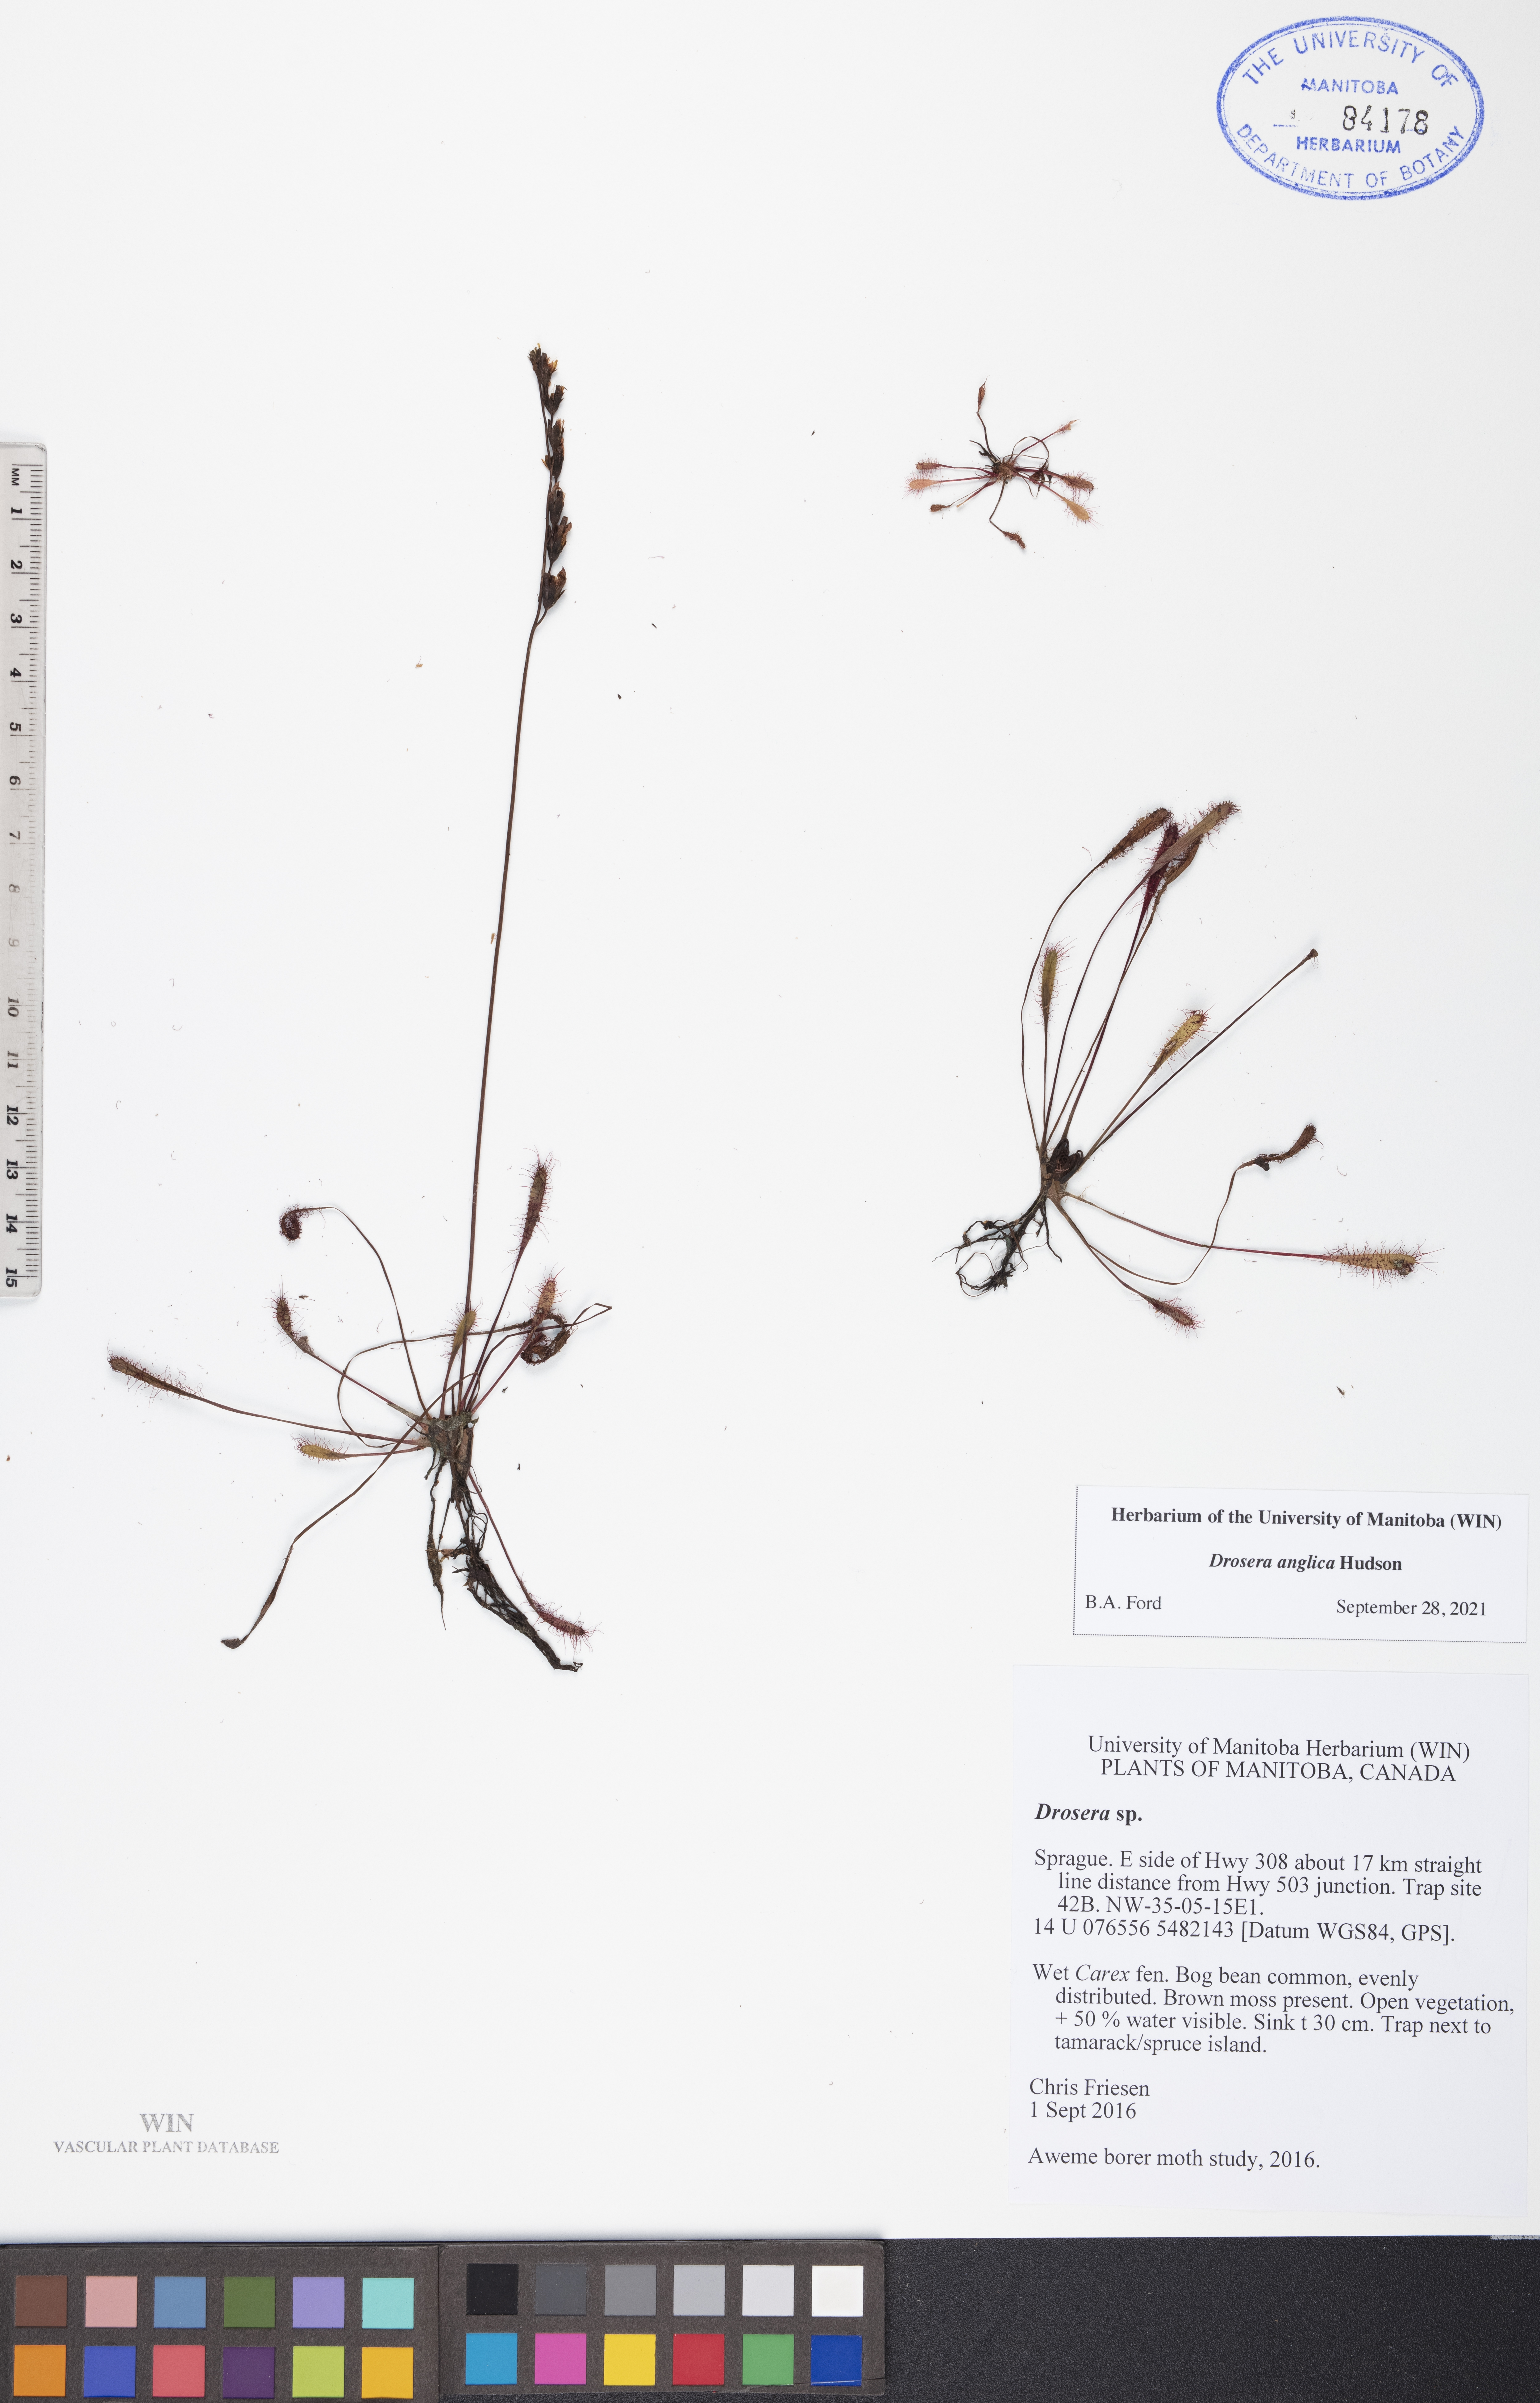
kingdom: Plantae
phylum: Tracheophyta
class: Magnoliopsida
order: Caryophyllales
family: Droseraceae
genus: Drosera
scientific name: Drosera anglica
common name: Great sundew
